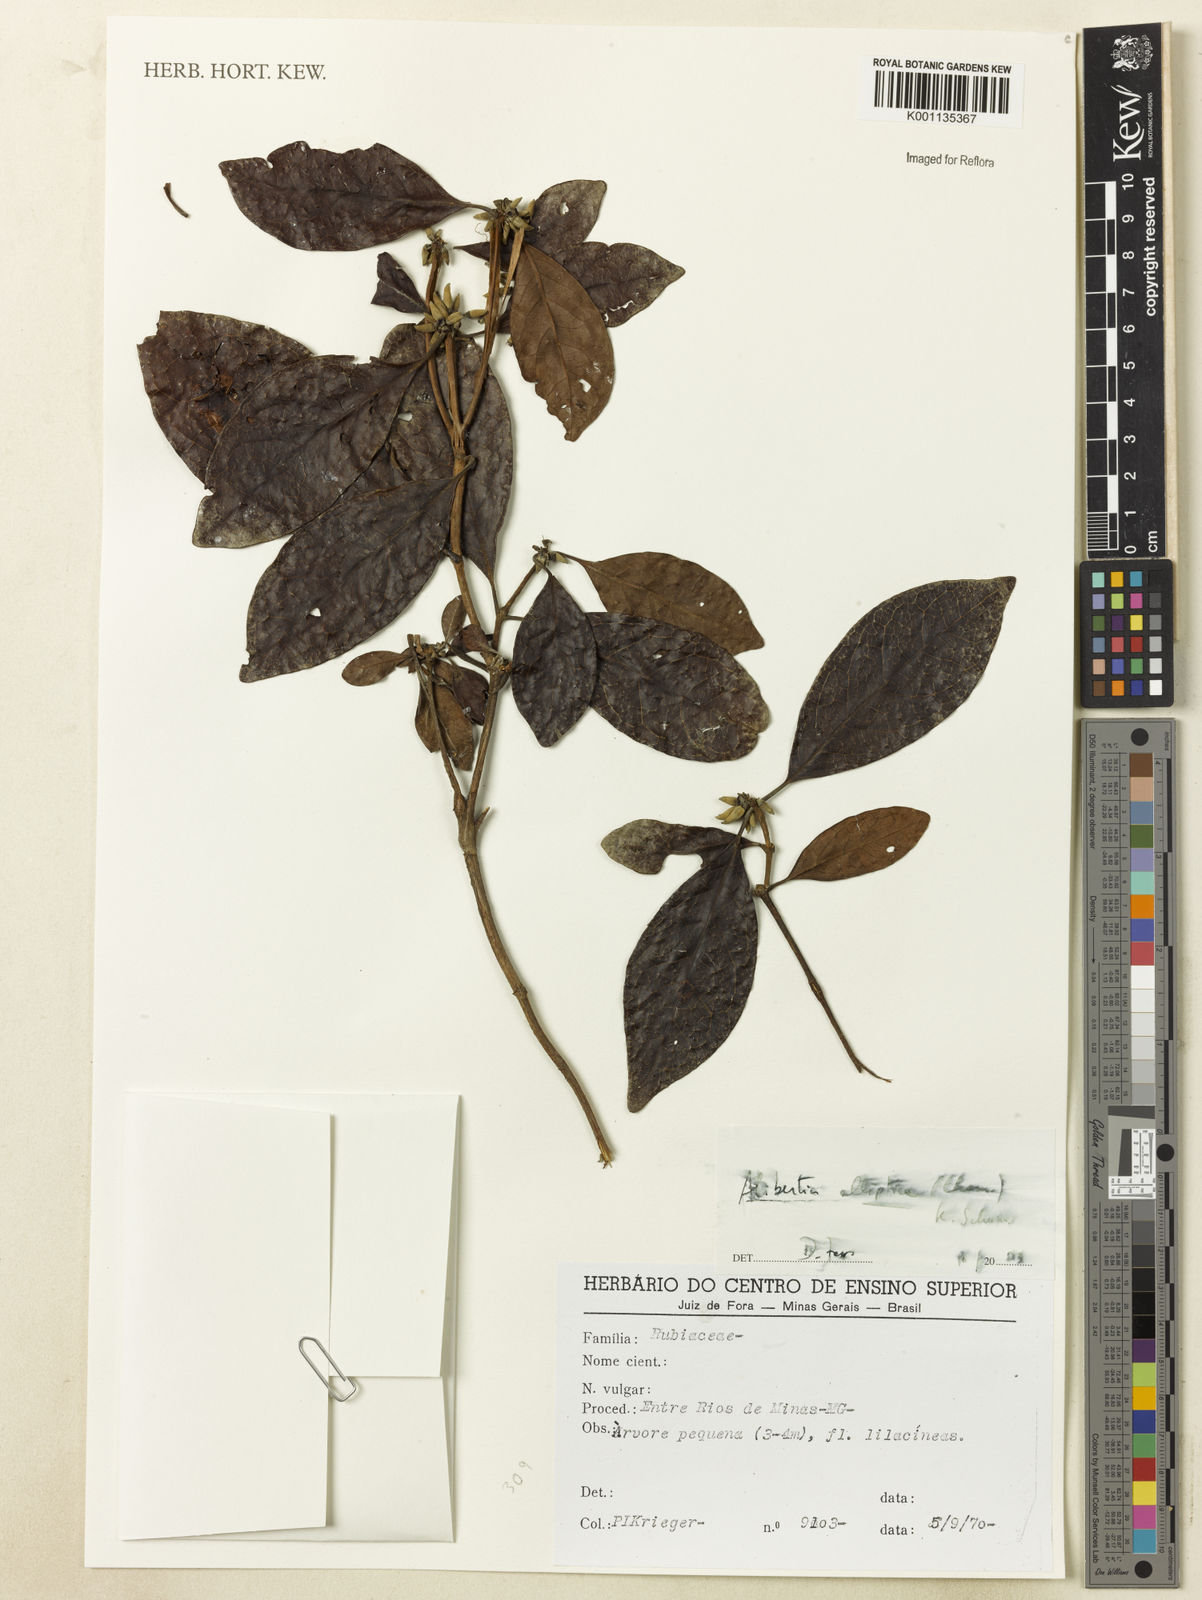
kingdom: Plantae
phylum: Tracheophyta
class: Magnoliopsida
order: Gentianales
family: Rubiaceae
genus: Cordiera
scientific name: Cordiera elliptica
